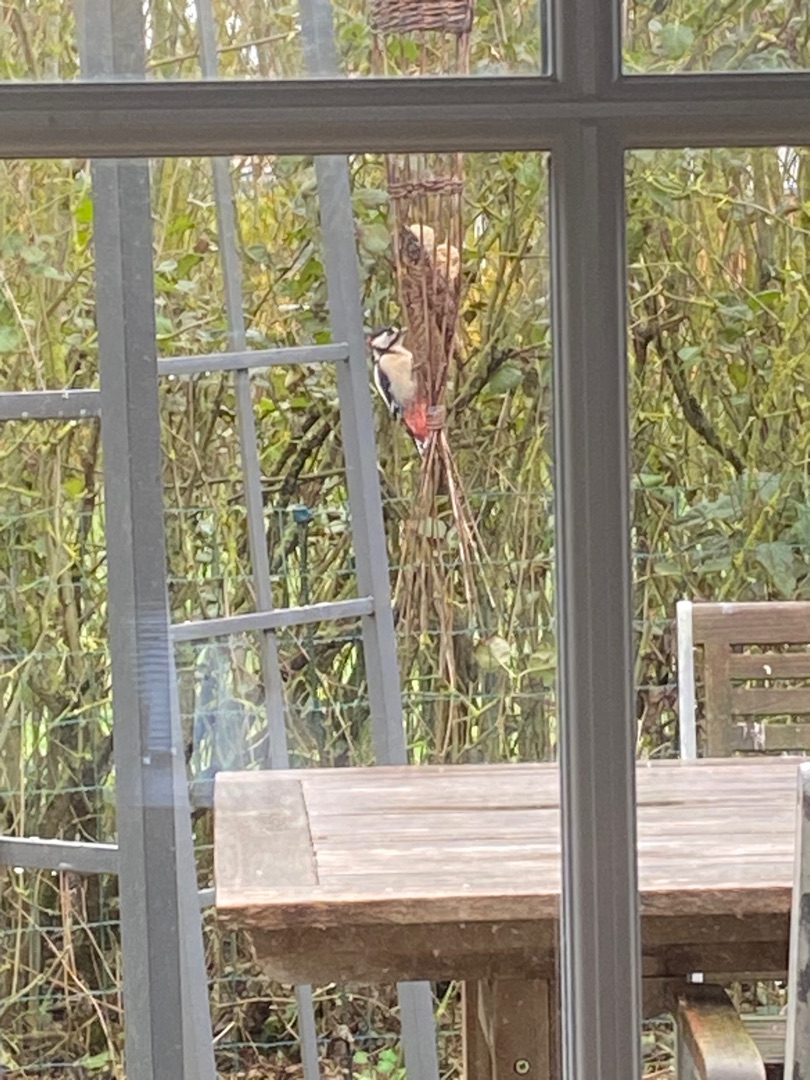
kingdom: Animalia
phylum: Chordata
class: Aves
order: Piciformes
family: Picidae
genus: Dendrocopos
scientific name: Dendrocopos major
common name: Stor flagspætte
